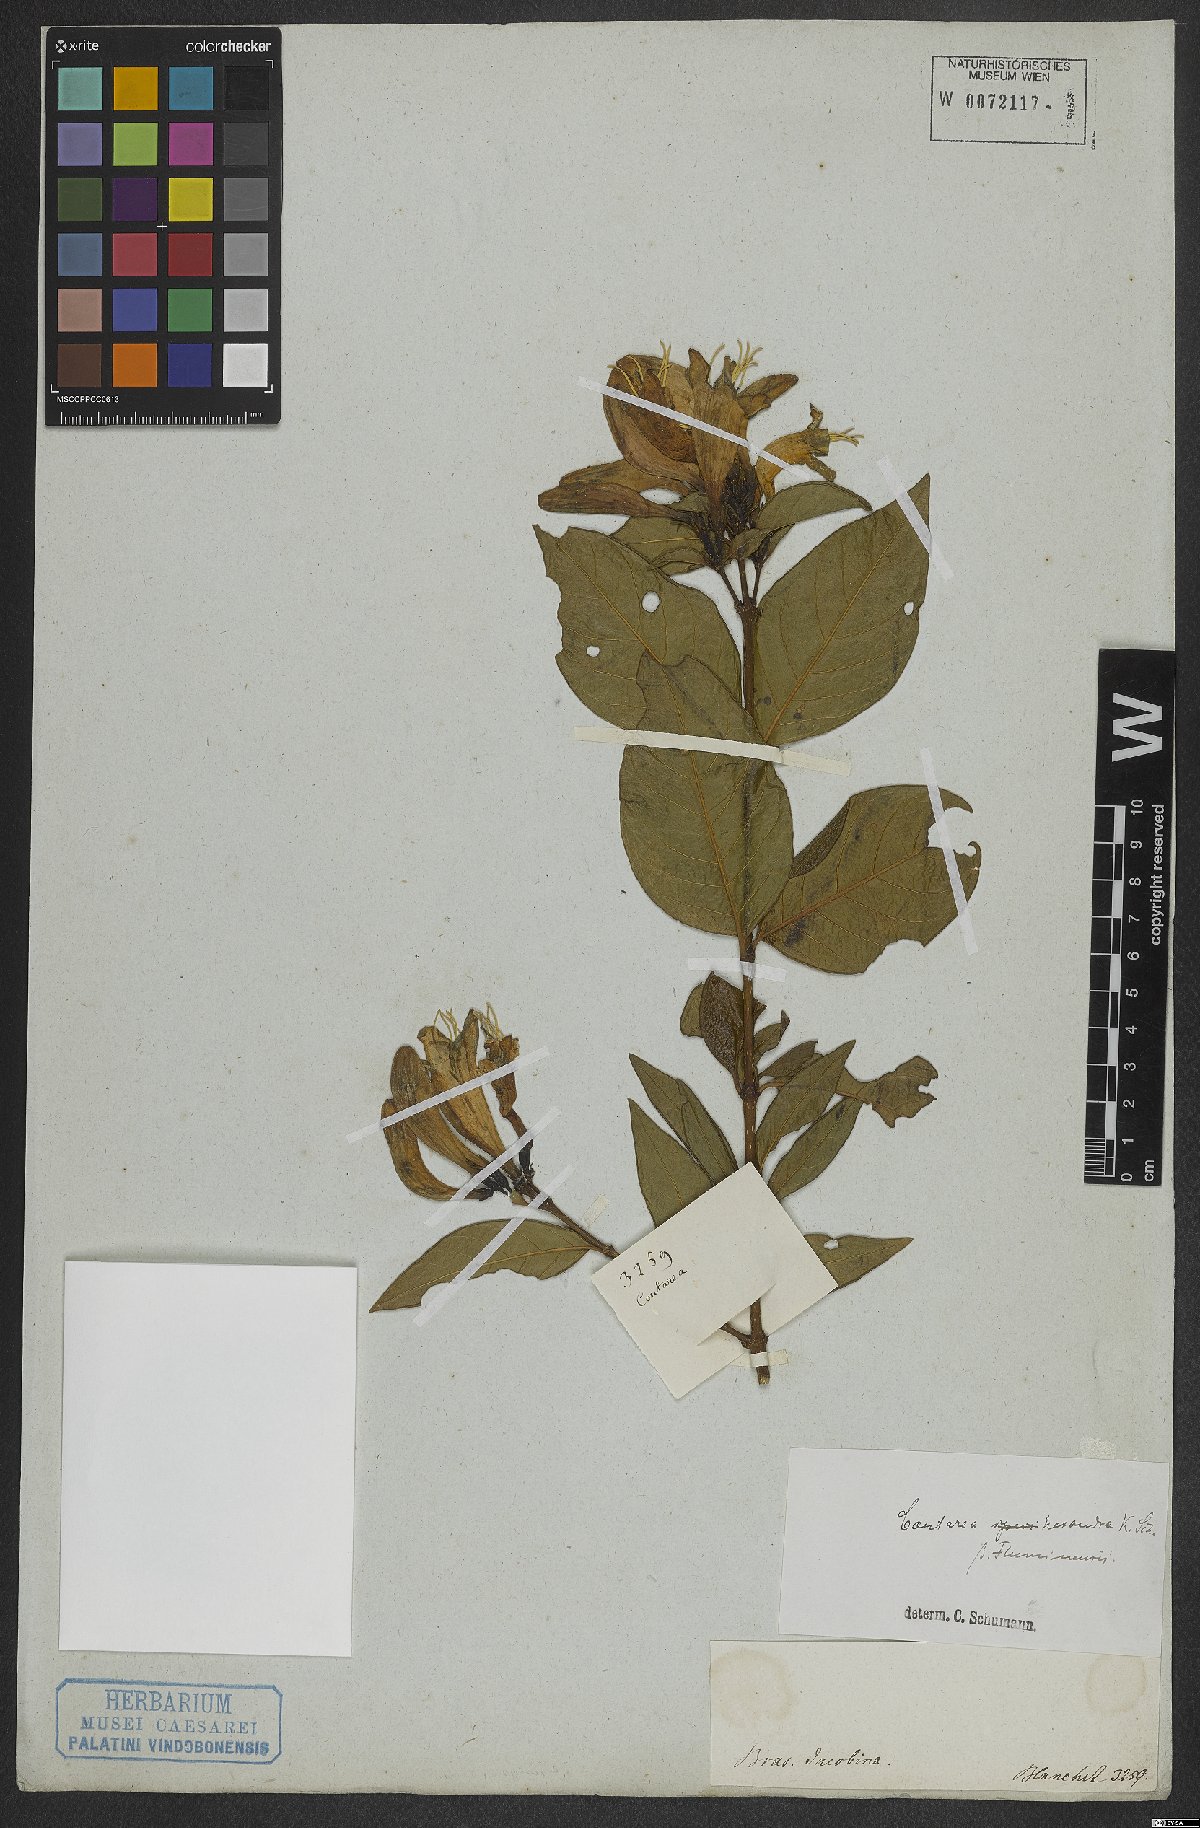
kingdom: Plantae
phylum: Tracheophyta
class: Magnoliopsida
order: Gentianales
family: Rubiaceae
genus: Coutarea
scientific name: Coutarea hexandra
